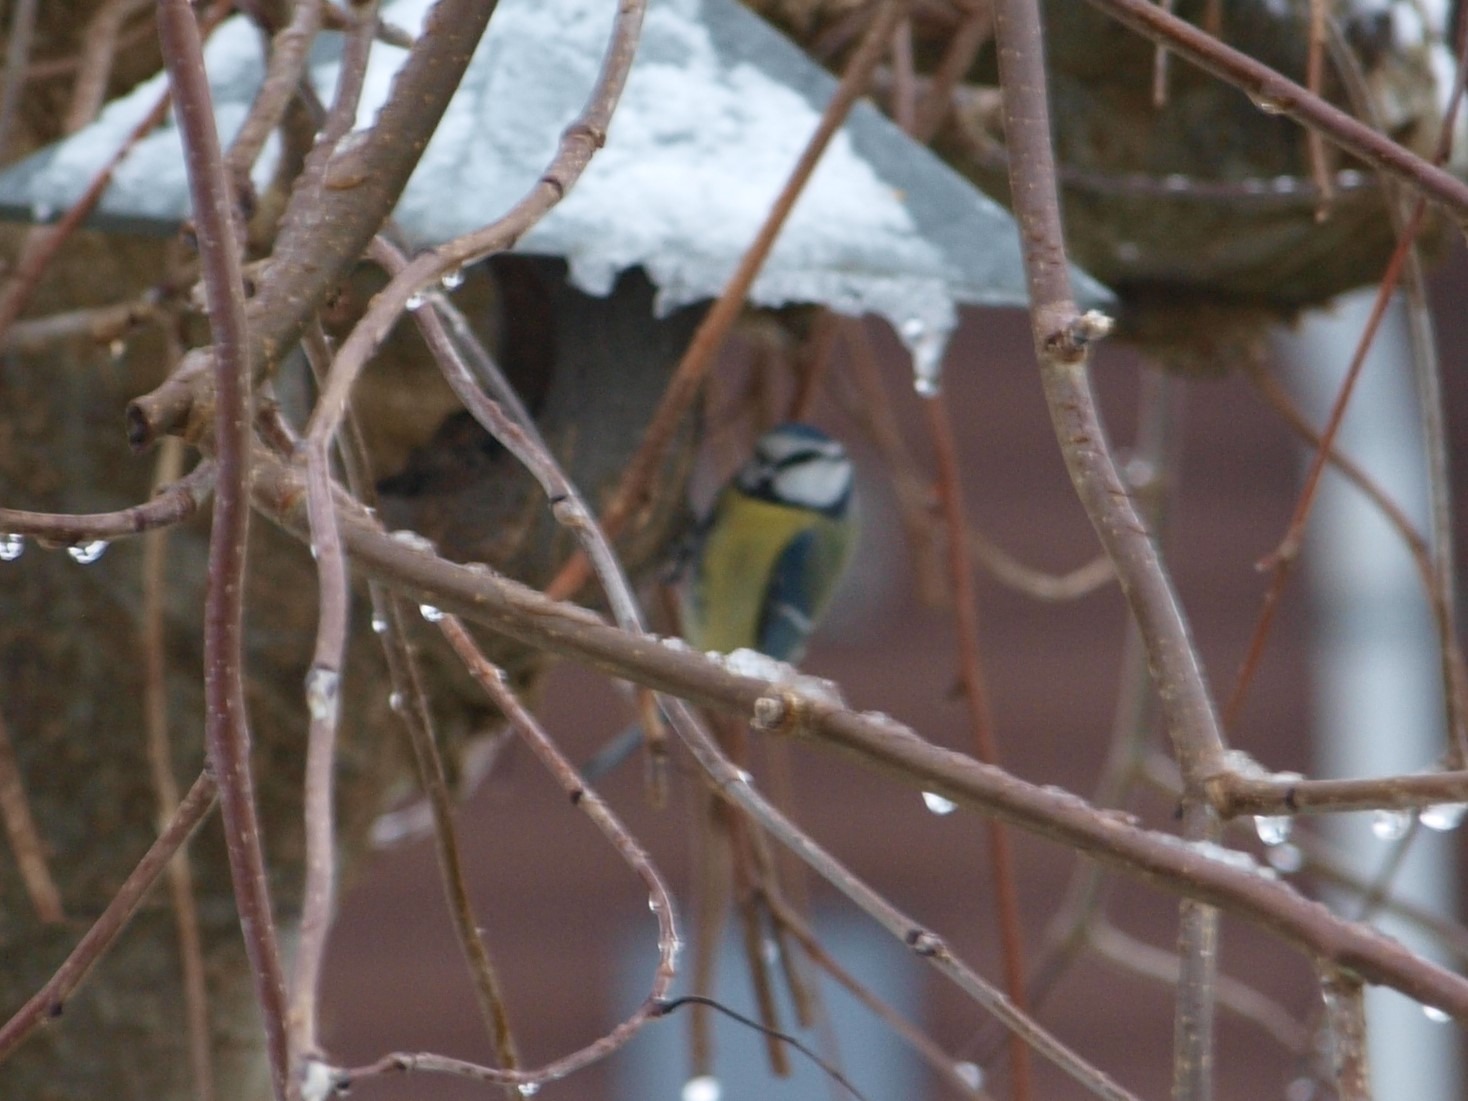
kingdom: Animalia
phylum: Chordata
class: Aves
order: Passeriformes
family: Paridae
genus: Cyanistes
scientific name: Cyanistes caeruleus
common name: Blåmejse
